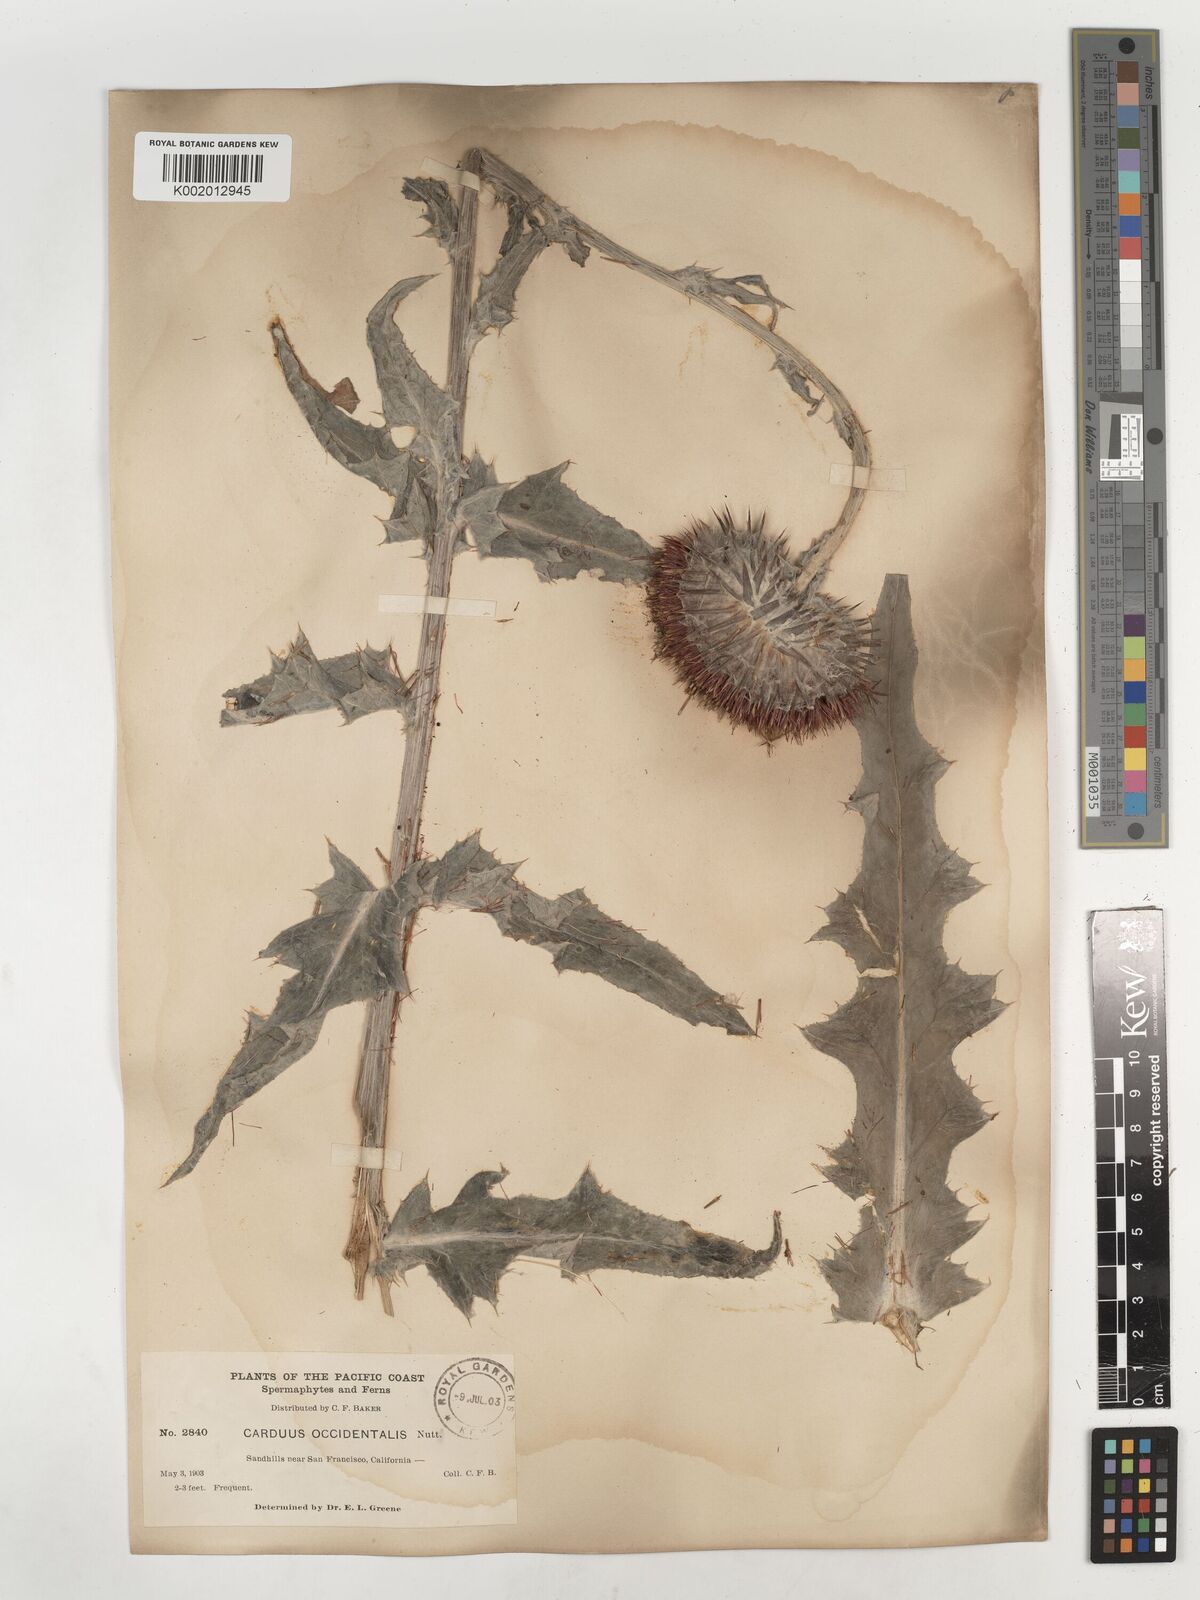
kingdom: Plantae
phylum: Tracheophyta
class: Magnoliopsida
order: Asterales
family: Asteraceae
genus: Cirsium
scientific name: Cirsium occidentale
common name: Western thistle
